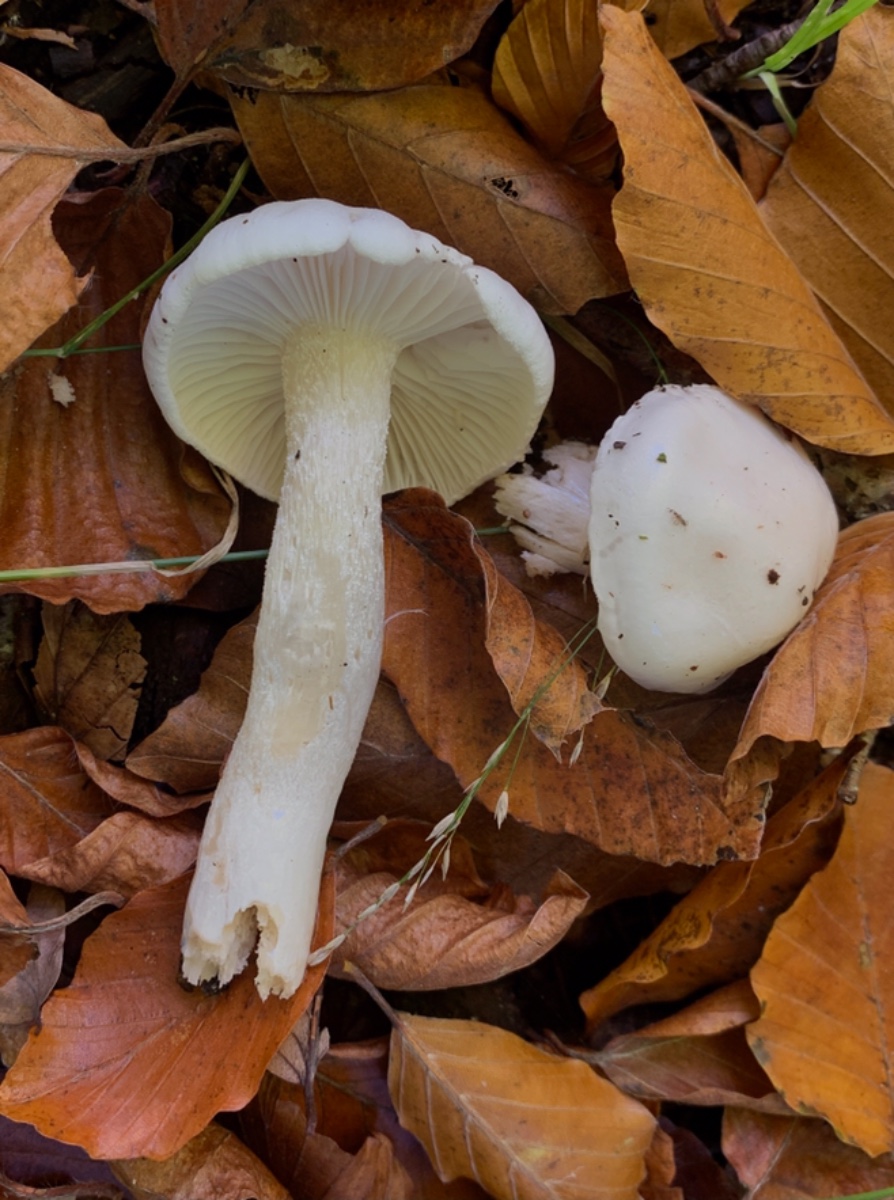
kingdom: Fungi
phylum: Basidiomycota
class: Agaricomycetes
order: Agaricales
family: Hygrophoraceae
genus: Hygrophorus
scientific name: Hygrophorus eburneus
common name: elfenbens-sneglehat
